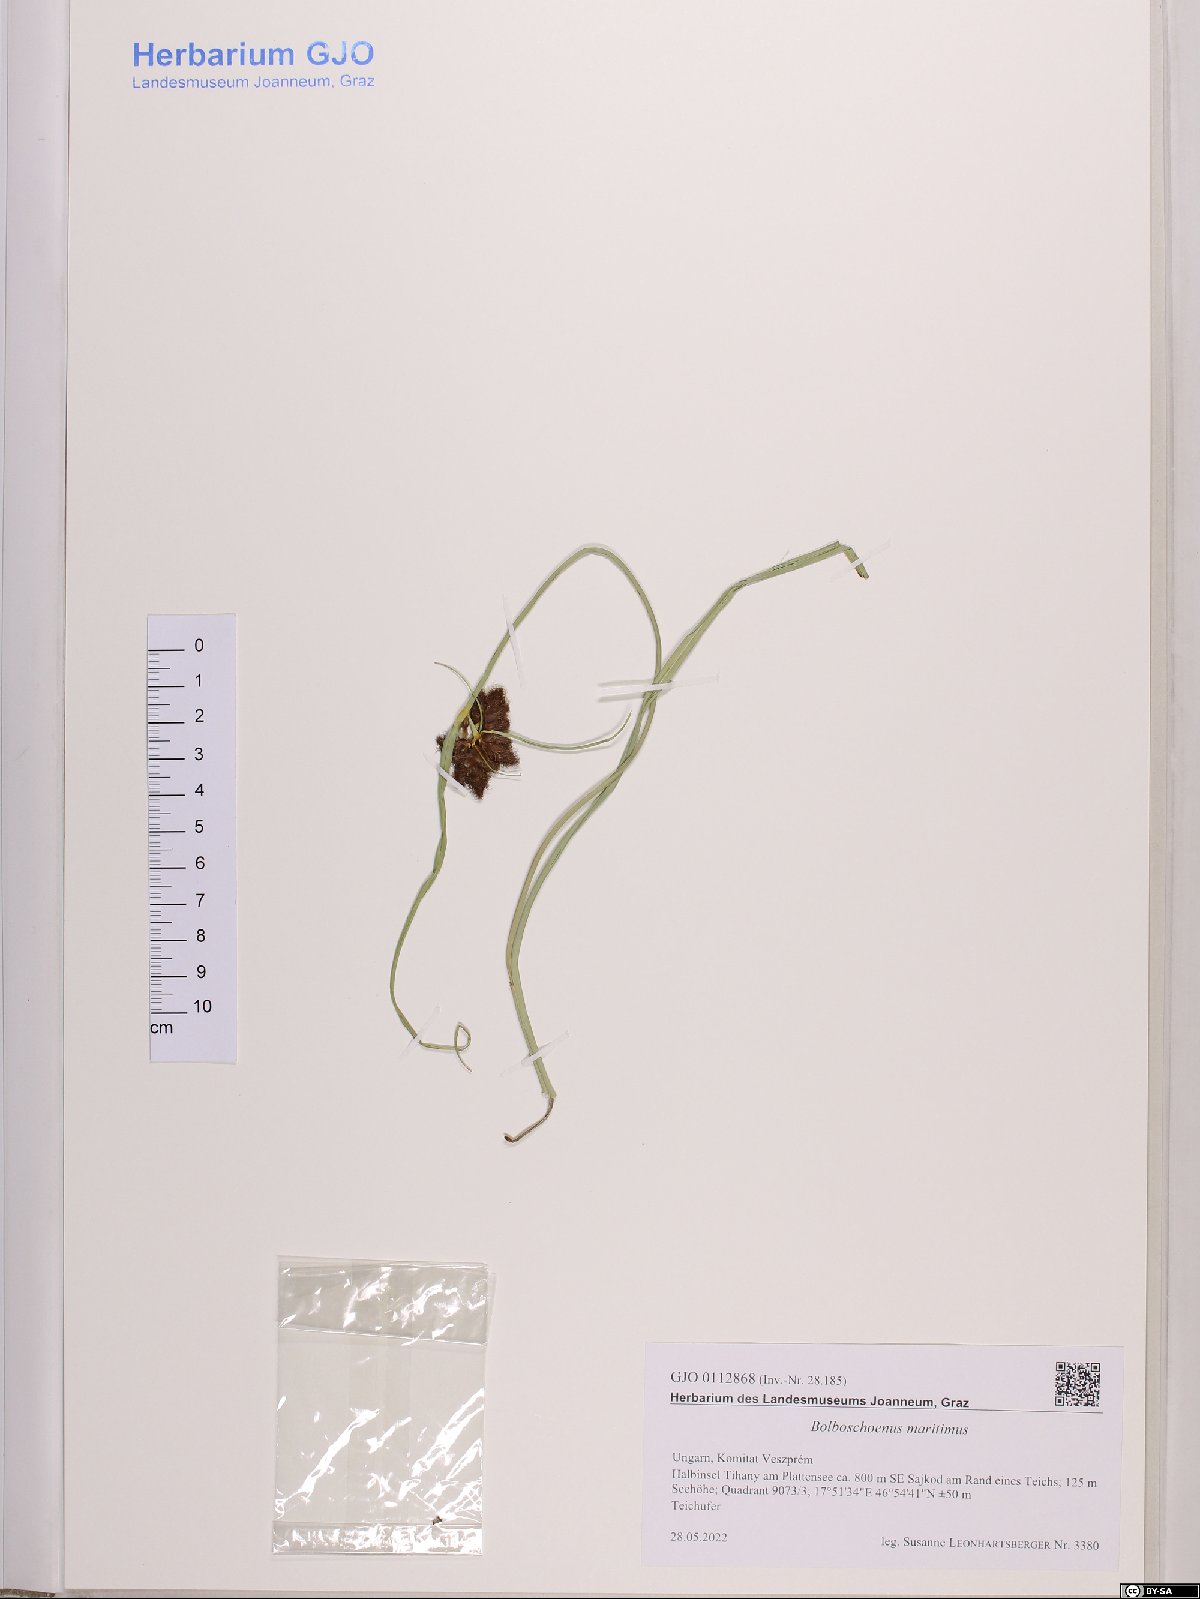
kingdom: Plantae
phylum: Tracheophyta
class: Liliopsida
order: Poales
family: Cyperaceae
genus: Bolboschoenus
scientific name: Bolboschoenus maritimus
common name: Sea club-rush
